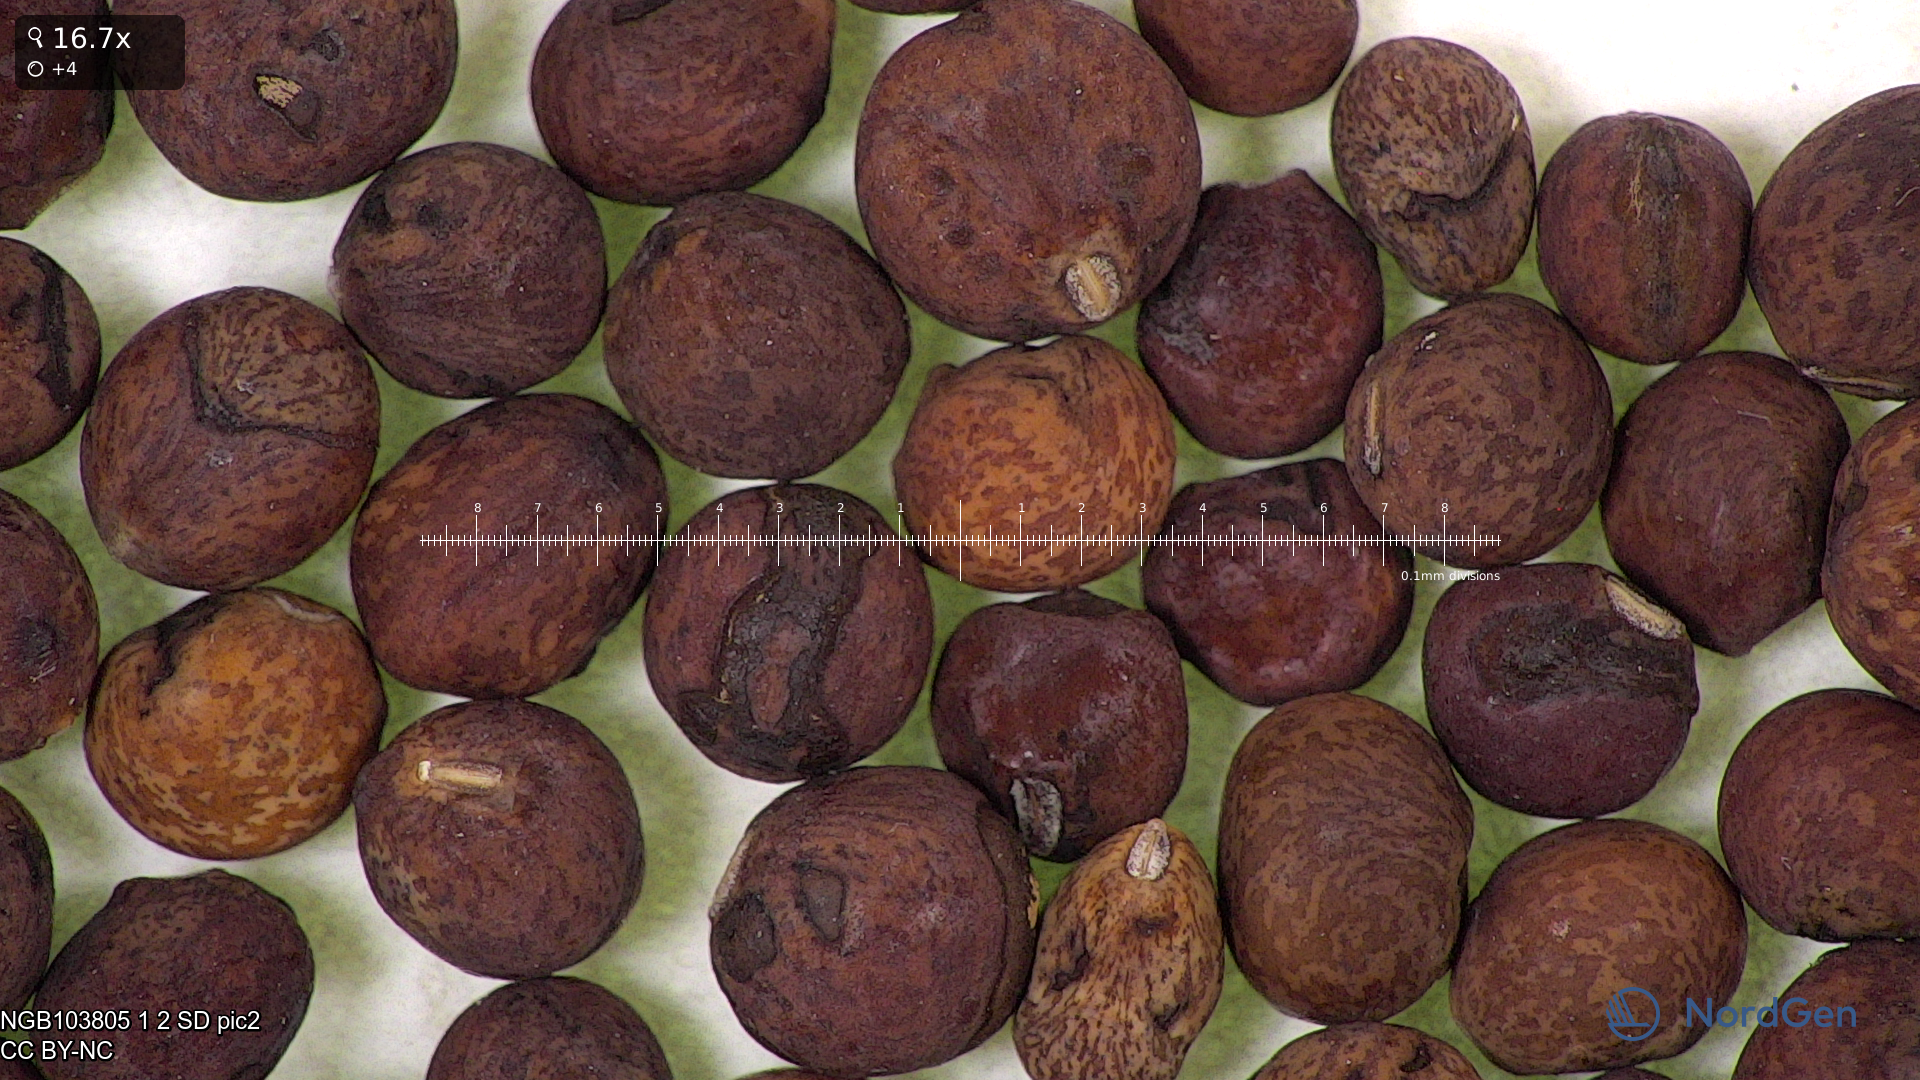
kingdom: Plantae
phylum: Tracheophyta
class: Magnoliopsida
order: Fabales
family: Fabaceae
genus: Lathyrus
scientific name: Lathyrus oleraceus
